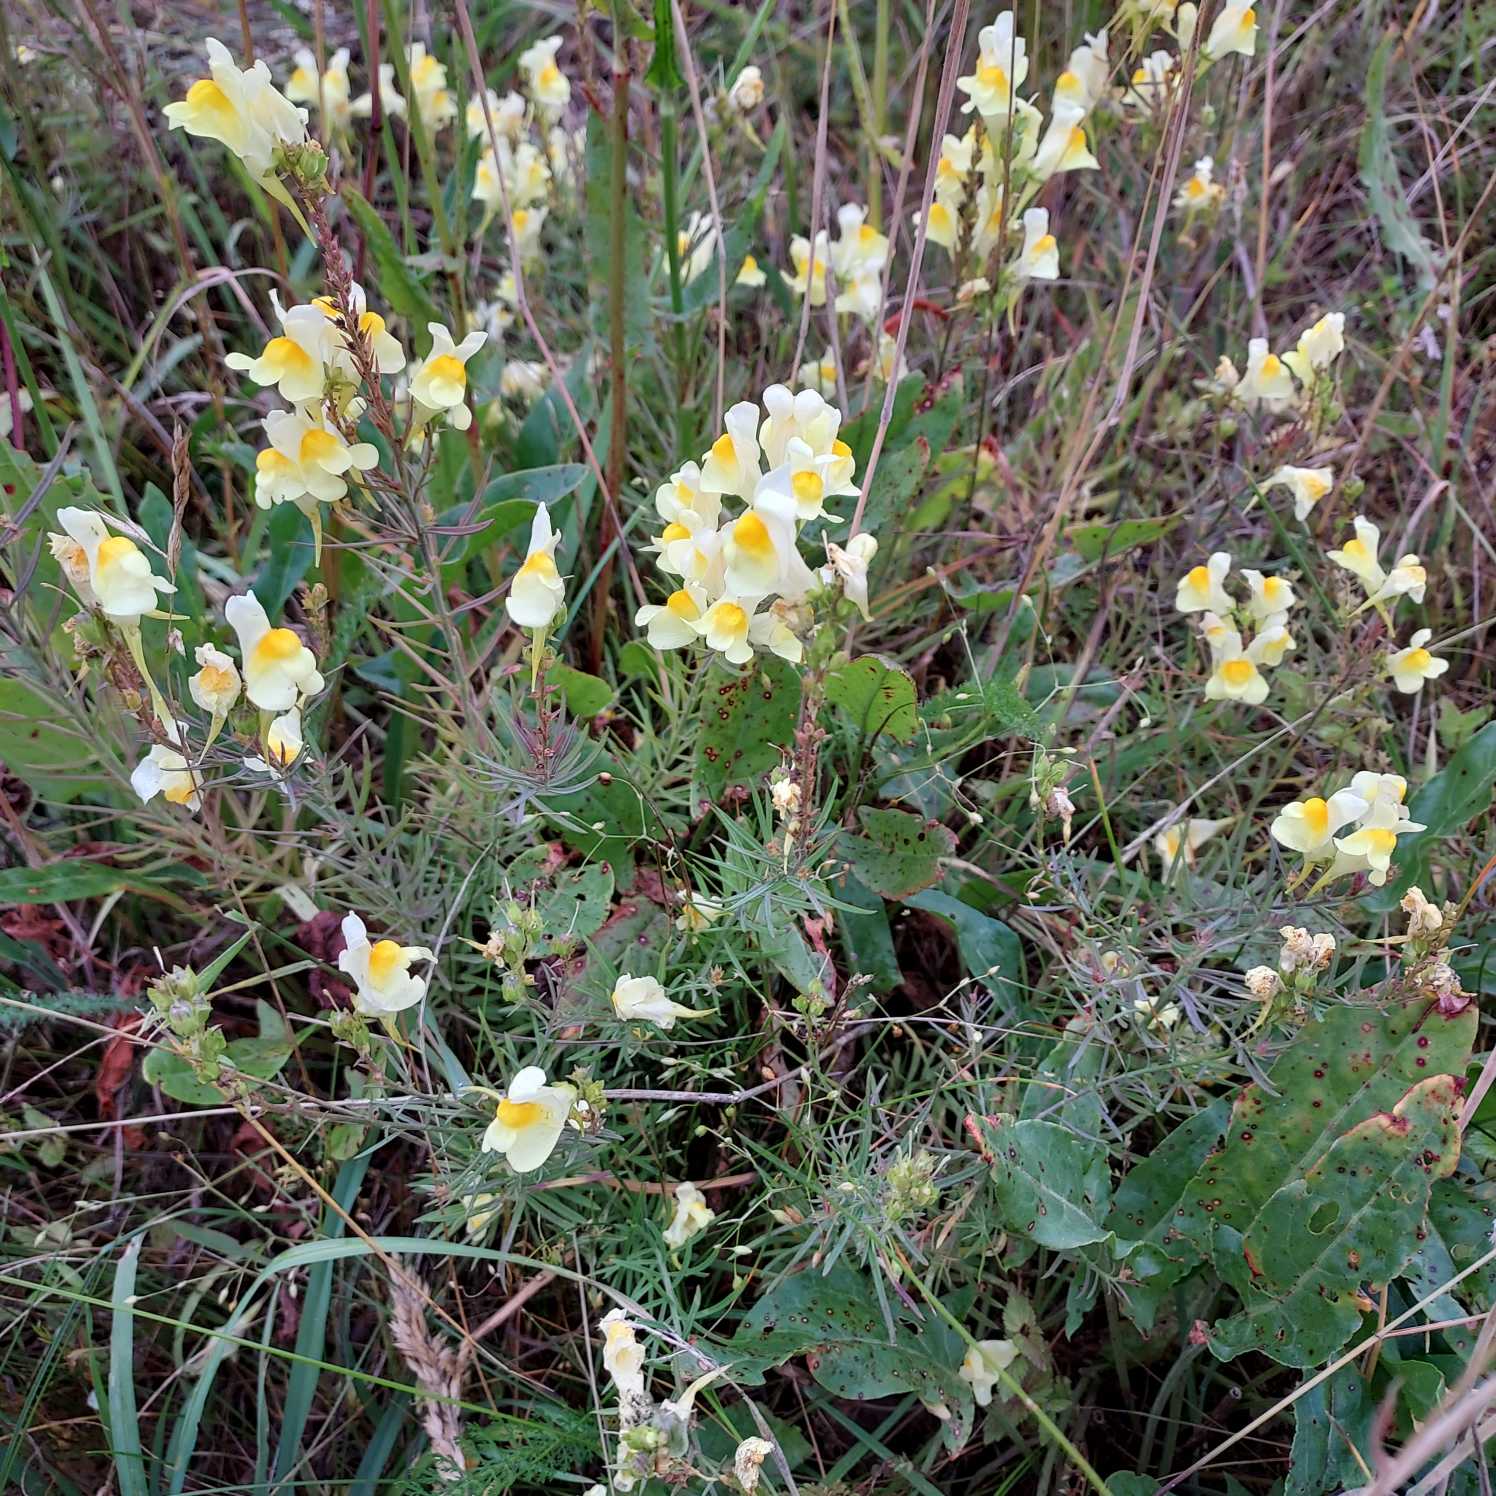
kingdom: Plantae
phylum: Tracheophyta
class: Magnoliopsida
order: Lamiales
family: Plantaginaceae
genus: Linaria
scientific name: Linaria vulgaris
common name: Almindelig torskemund
